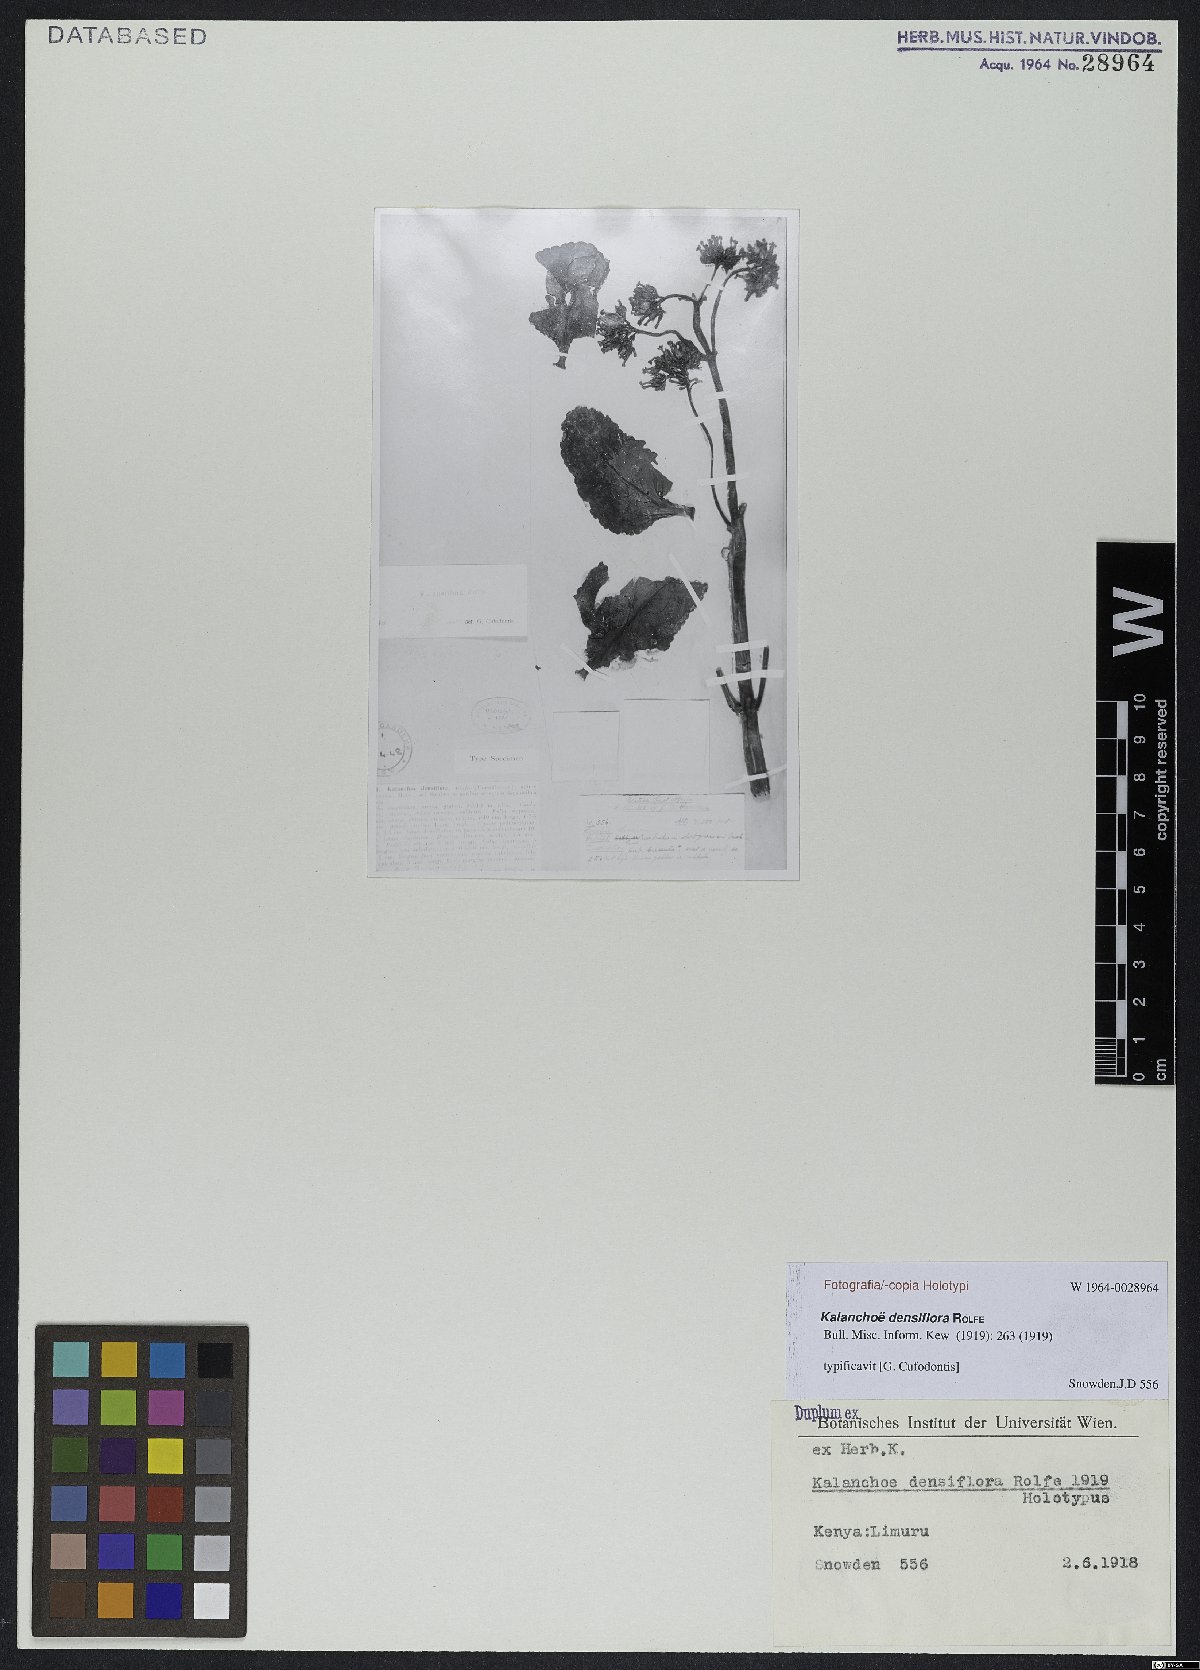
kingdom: Plantae
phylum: Tracheophyta
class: Magnoliopsida
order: Saxifragales
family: Crassulaceae
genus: Kalanchoe
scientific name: Kalanchoe densiflora
